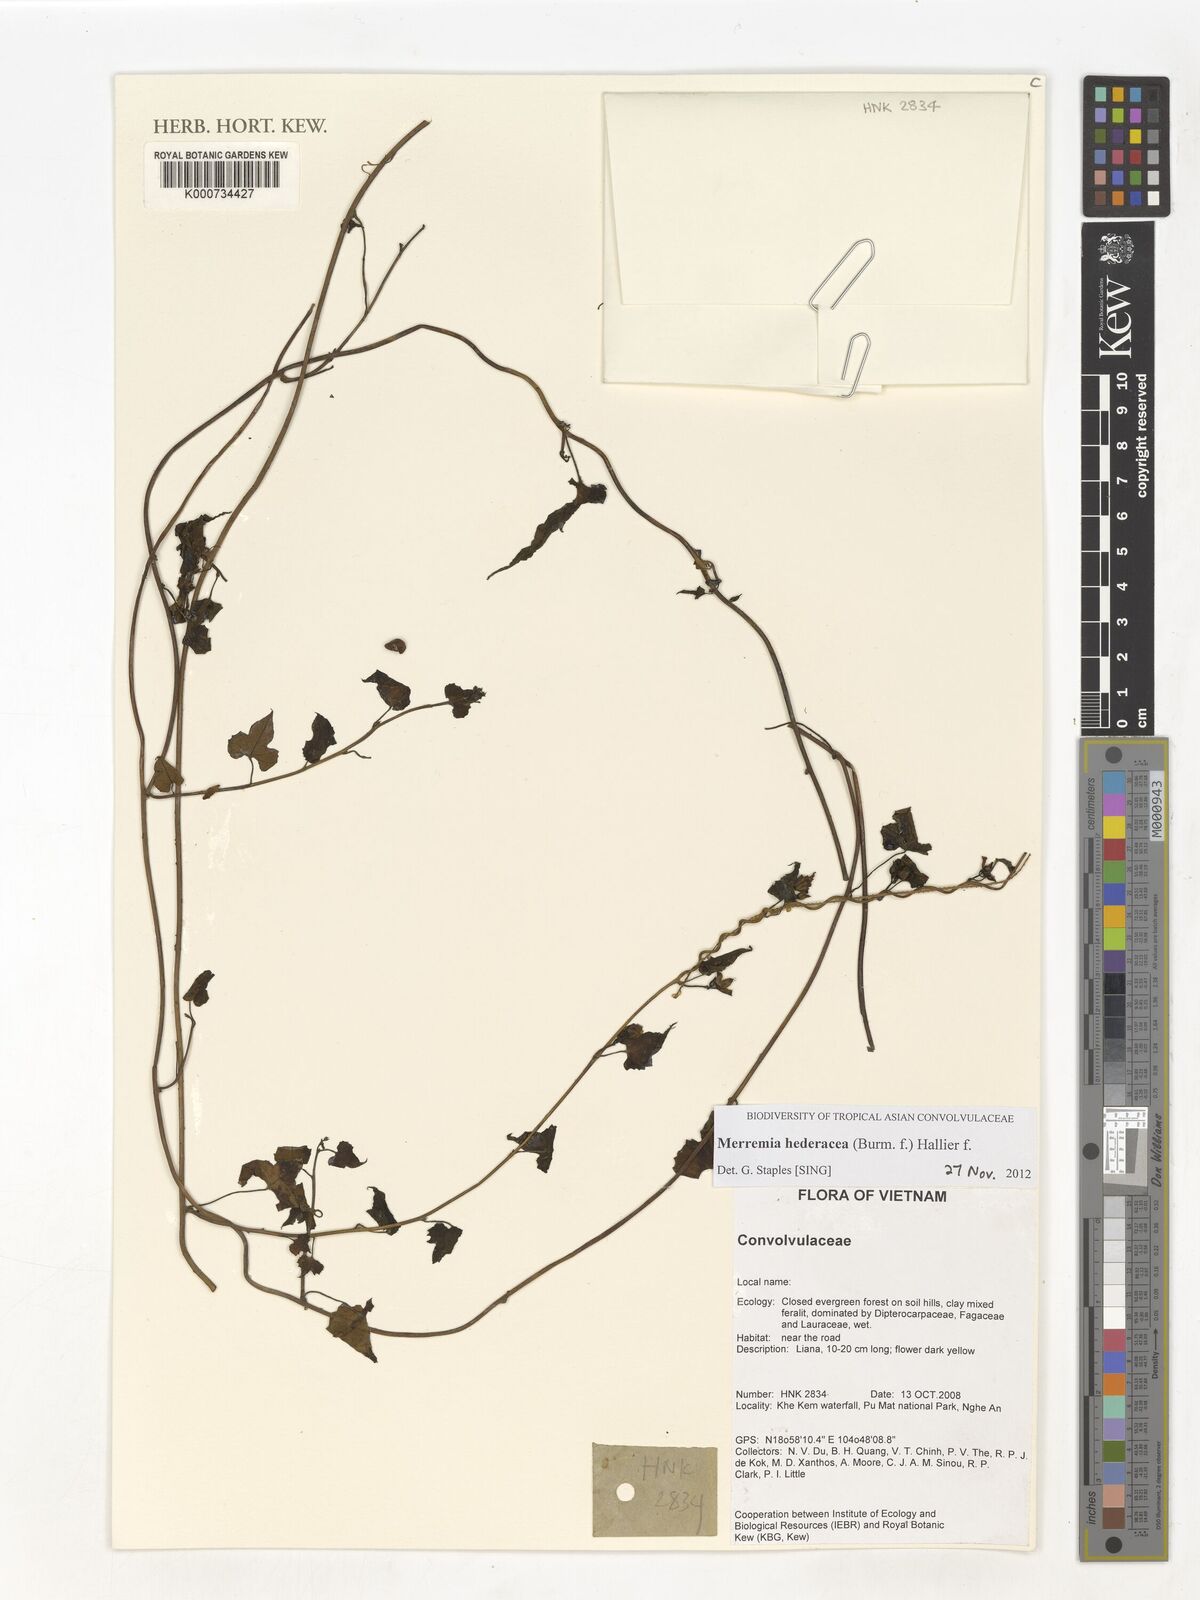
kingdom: Plantae
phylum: Tracheophyta
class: Magnoliopsida
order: Solanales
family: Convolvulaceae
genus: Merremia
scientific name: Merremia hederacea
